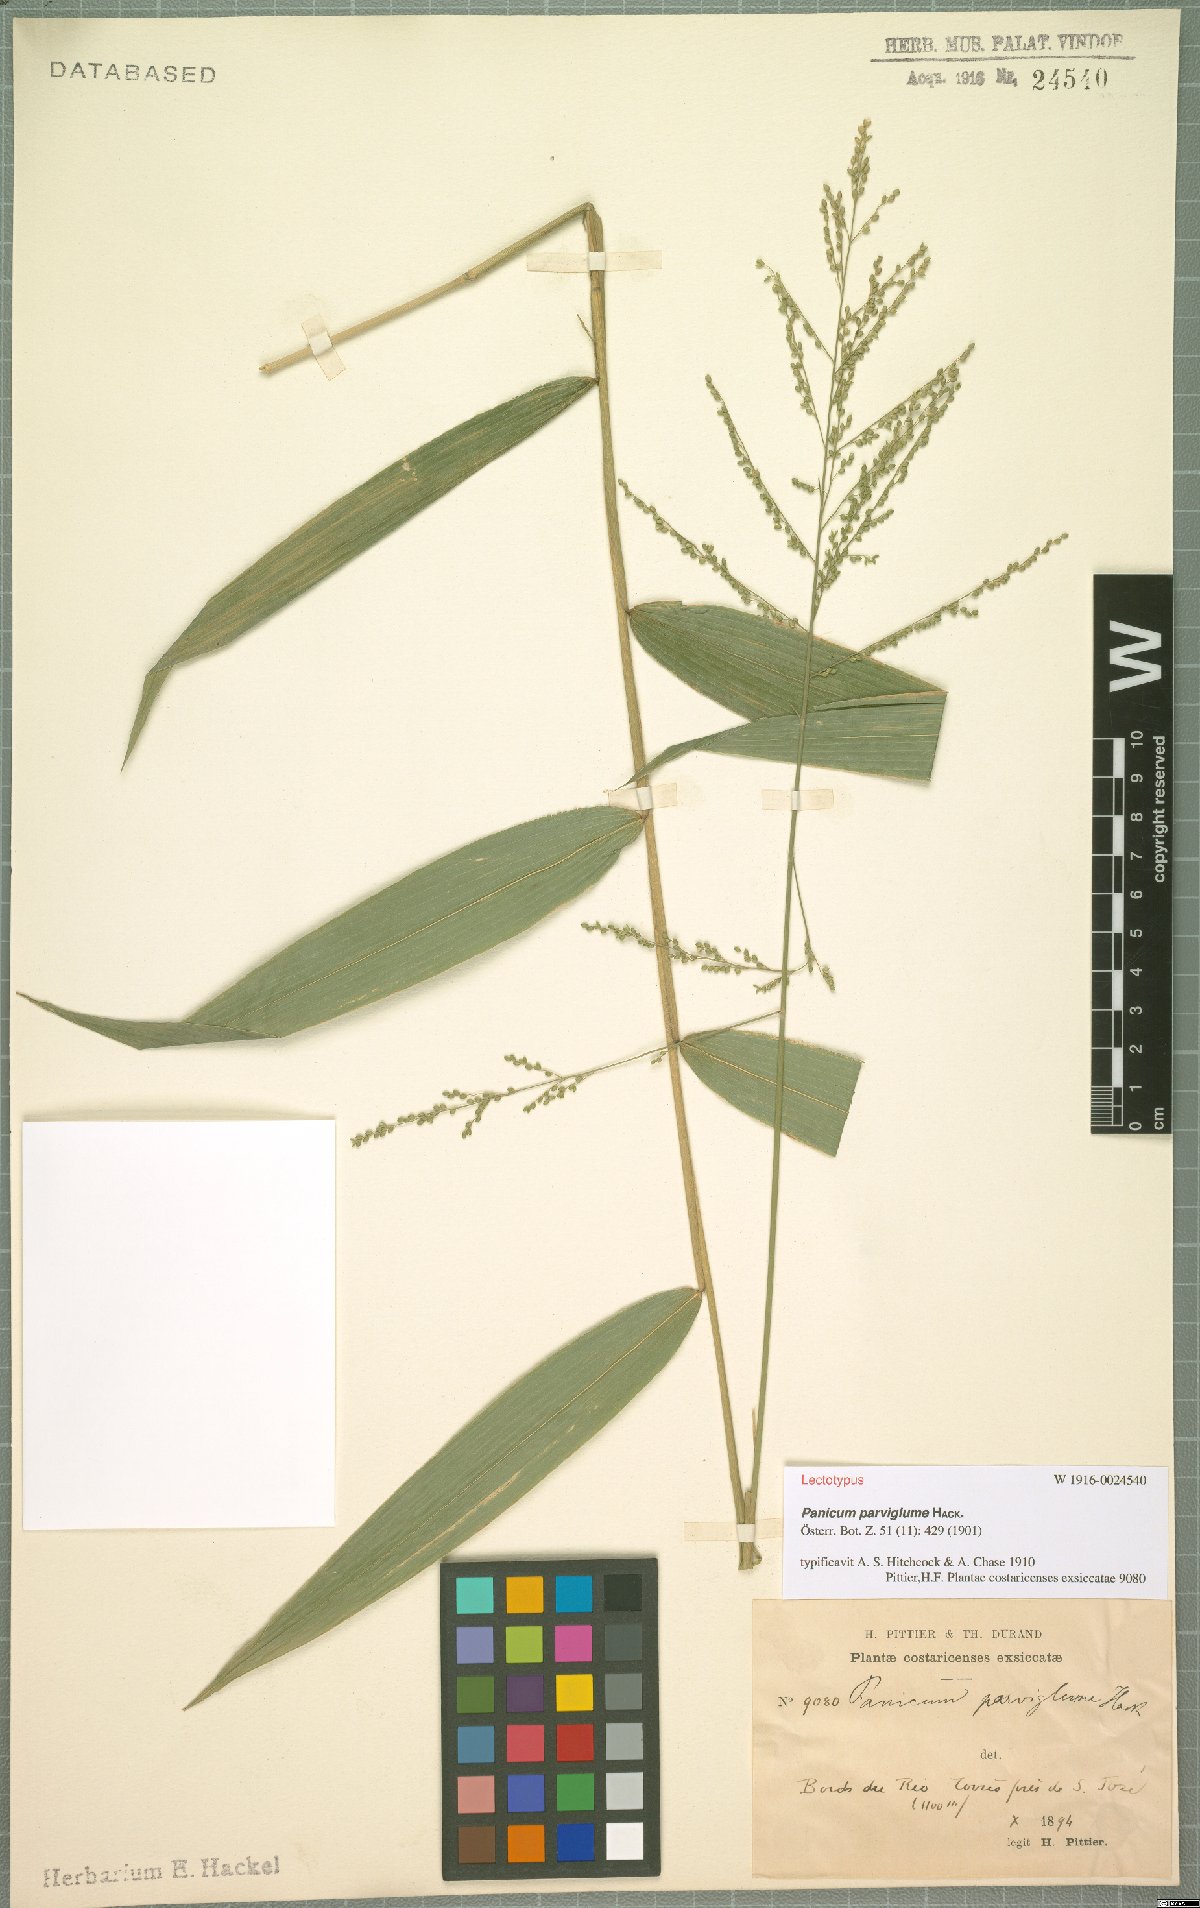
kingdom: Plantae
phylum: Tracheophyta
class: Liliopsida
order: Poales
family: Poaceae
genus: Morronea
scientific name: Morronea parviglumis
